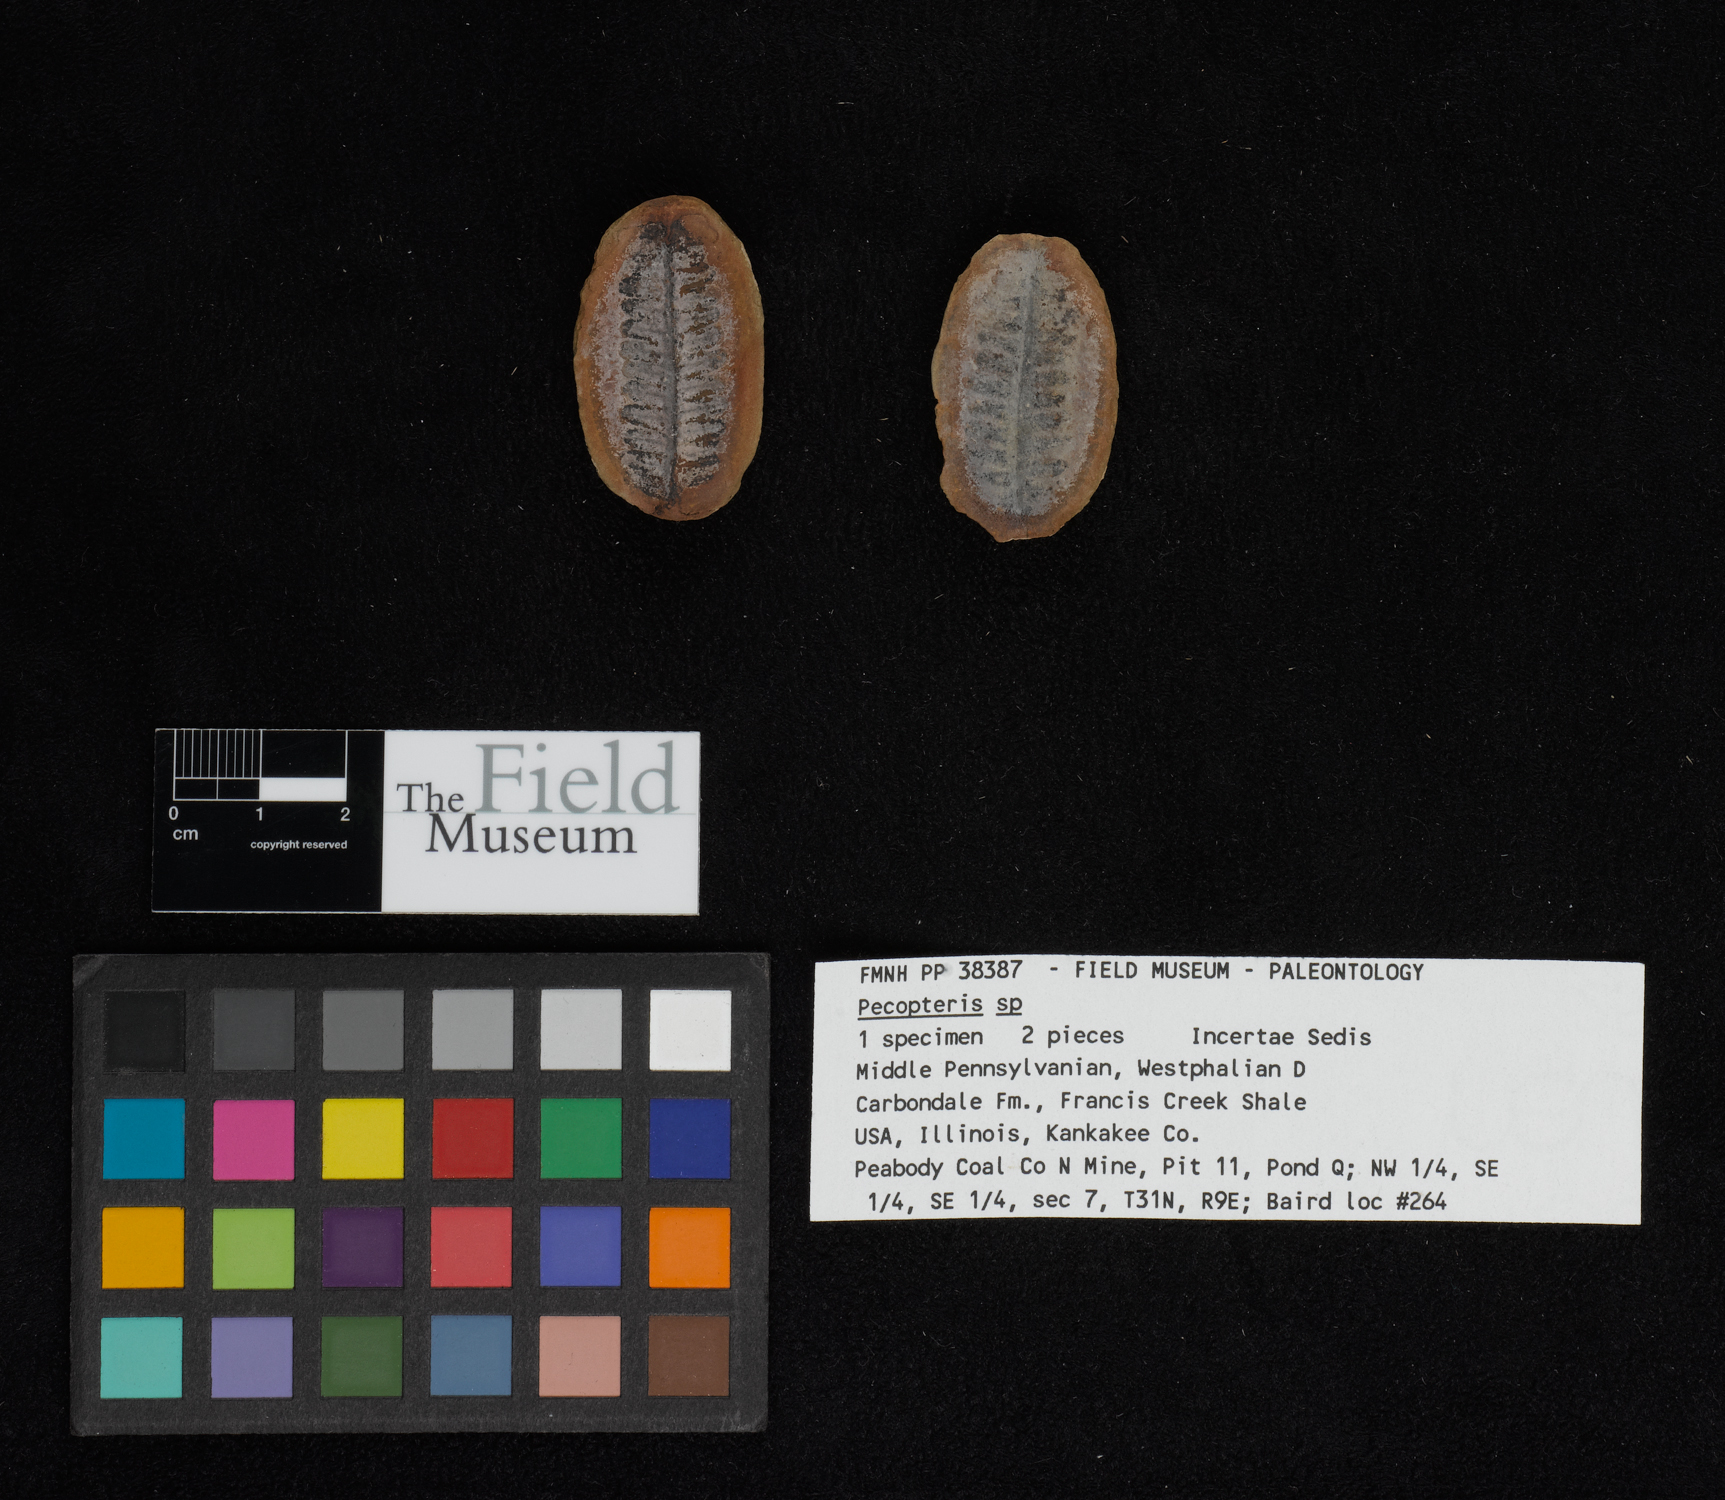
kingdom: Plantae
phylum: Tracheophyta
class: Polypodiopsida
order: Marattiales
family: Asterothecaceae
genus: Pecopteris
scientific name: Pecopteris
